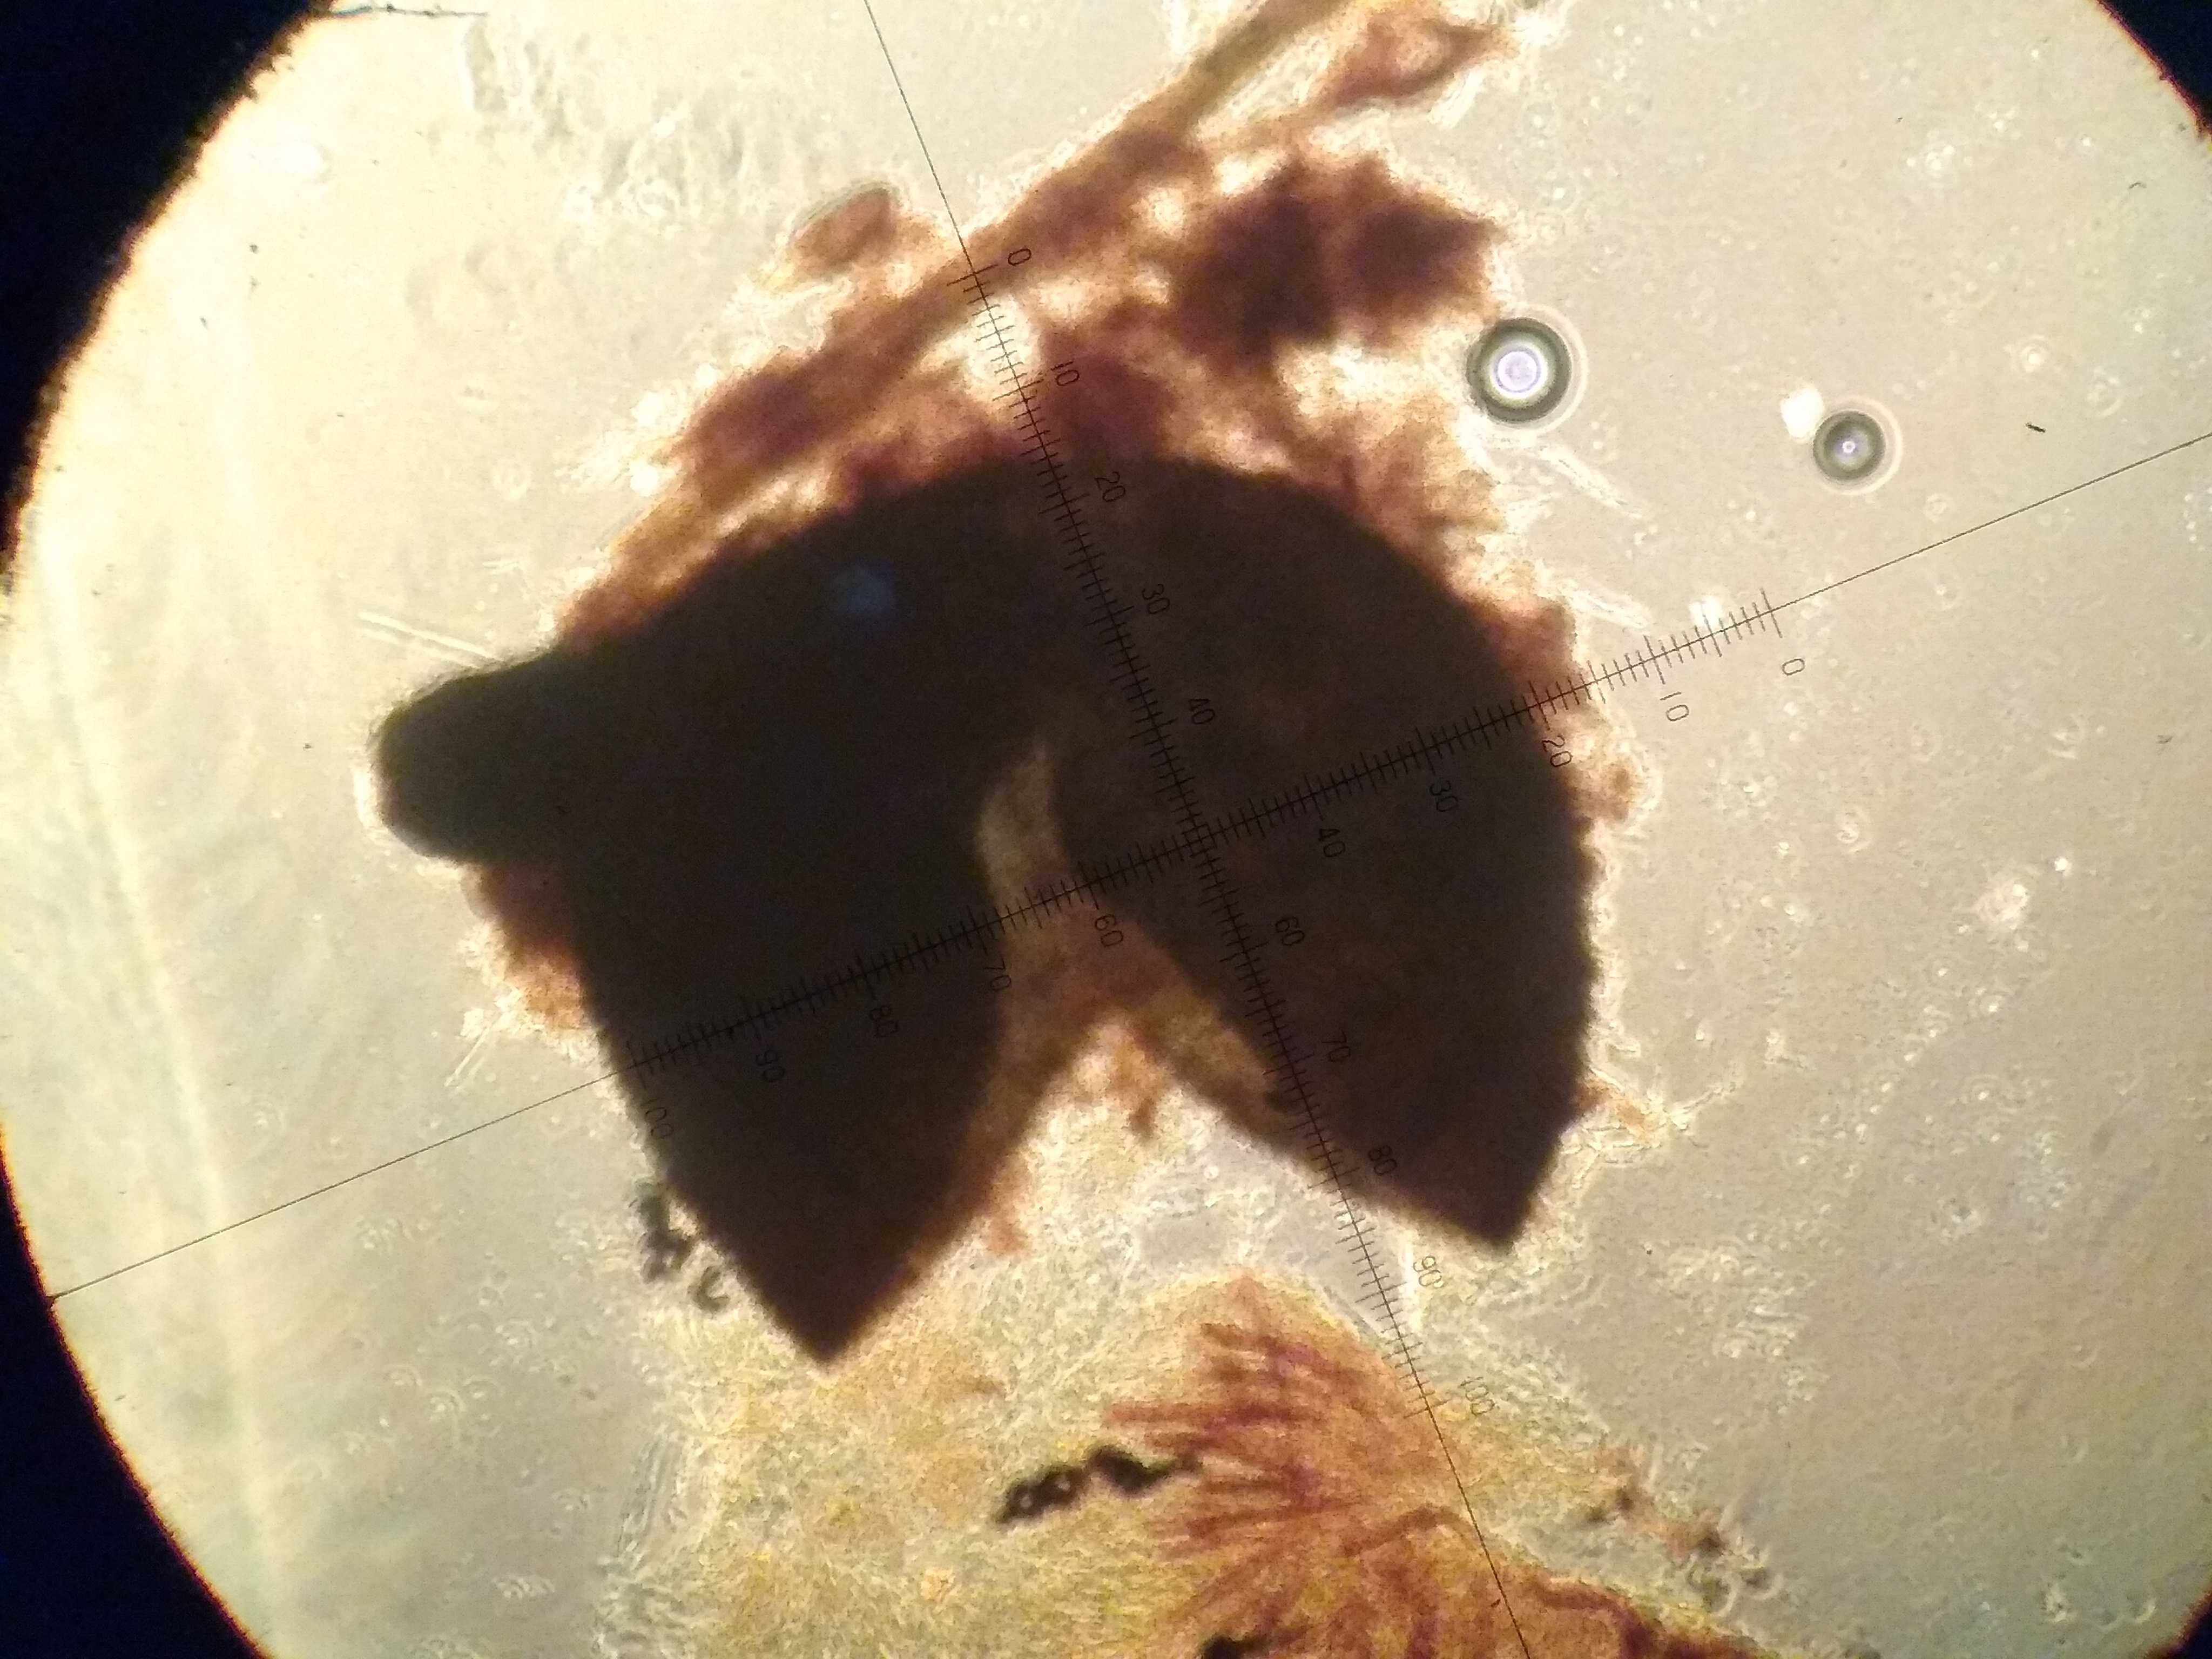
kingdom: Fungi
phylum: Ascomycota
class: Sordariomycetes
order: Sordariales
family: Podosporaceae
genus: Podospora
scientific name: Podospora
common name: kernesvamp
